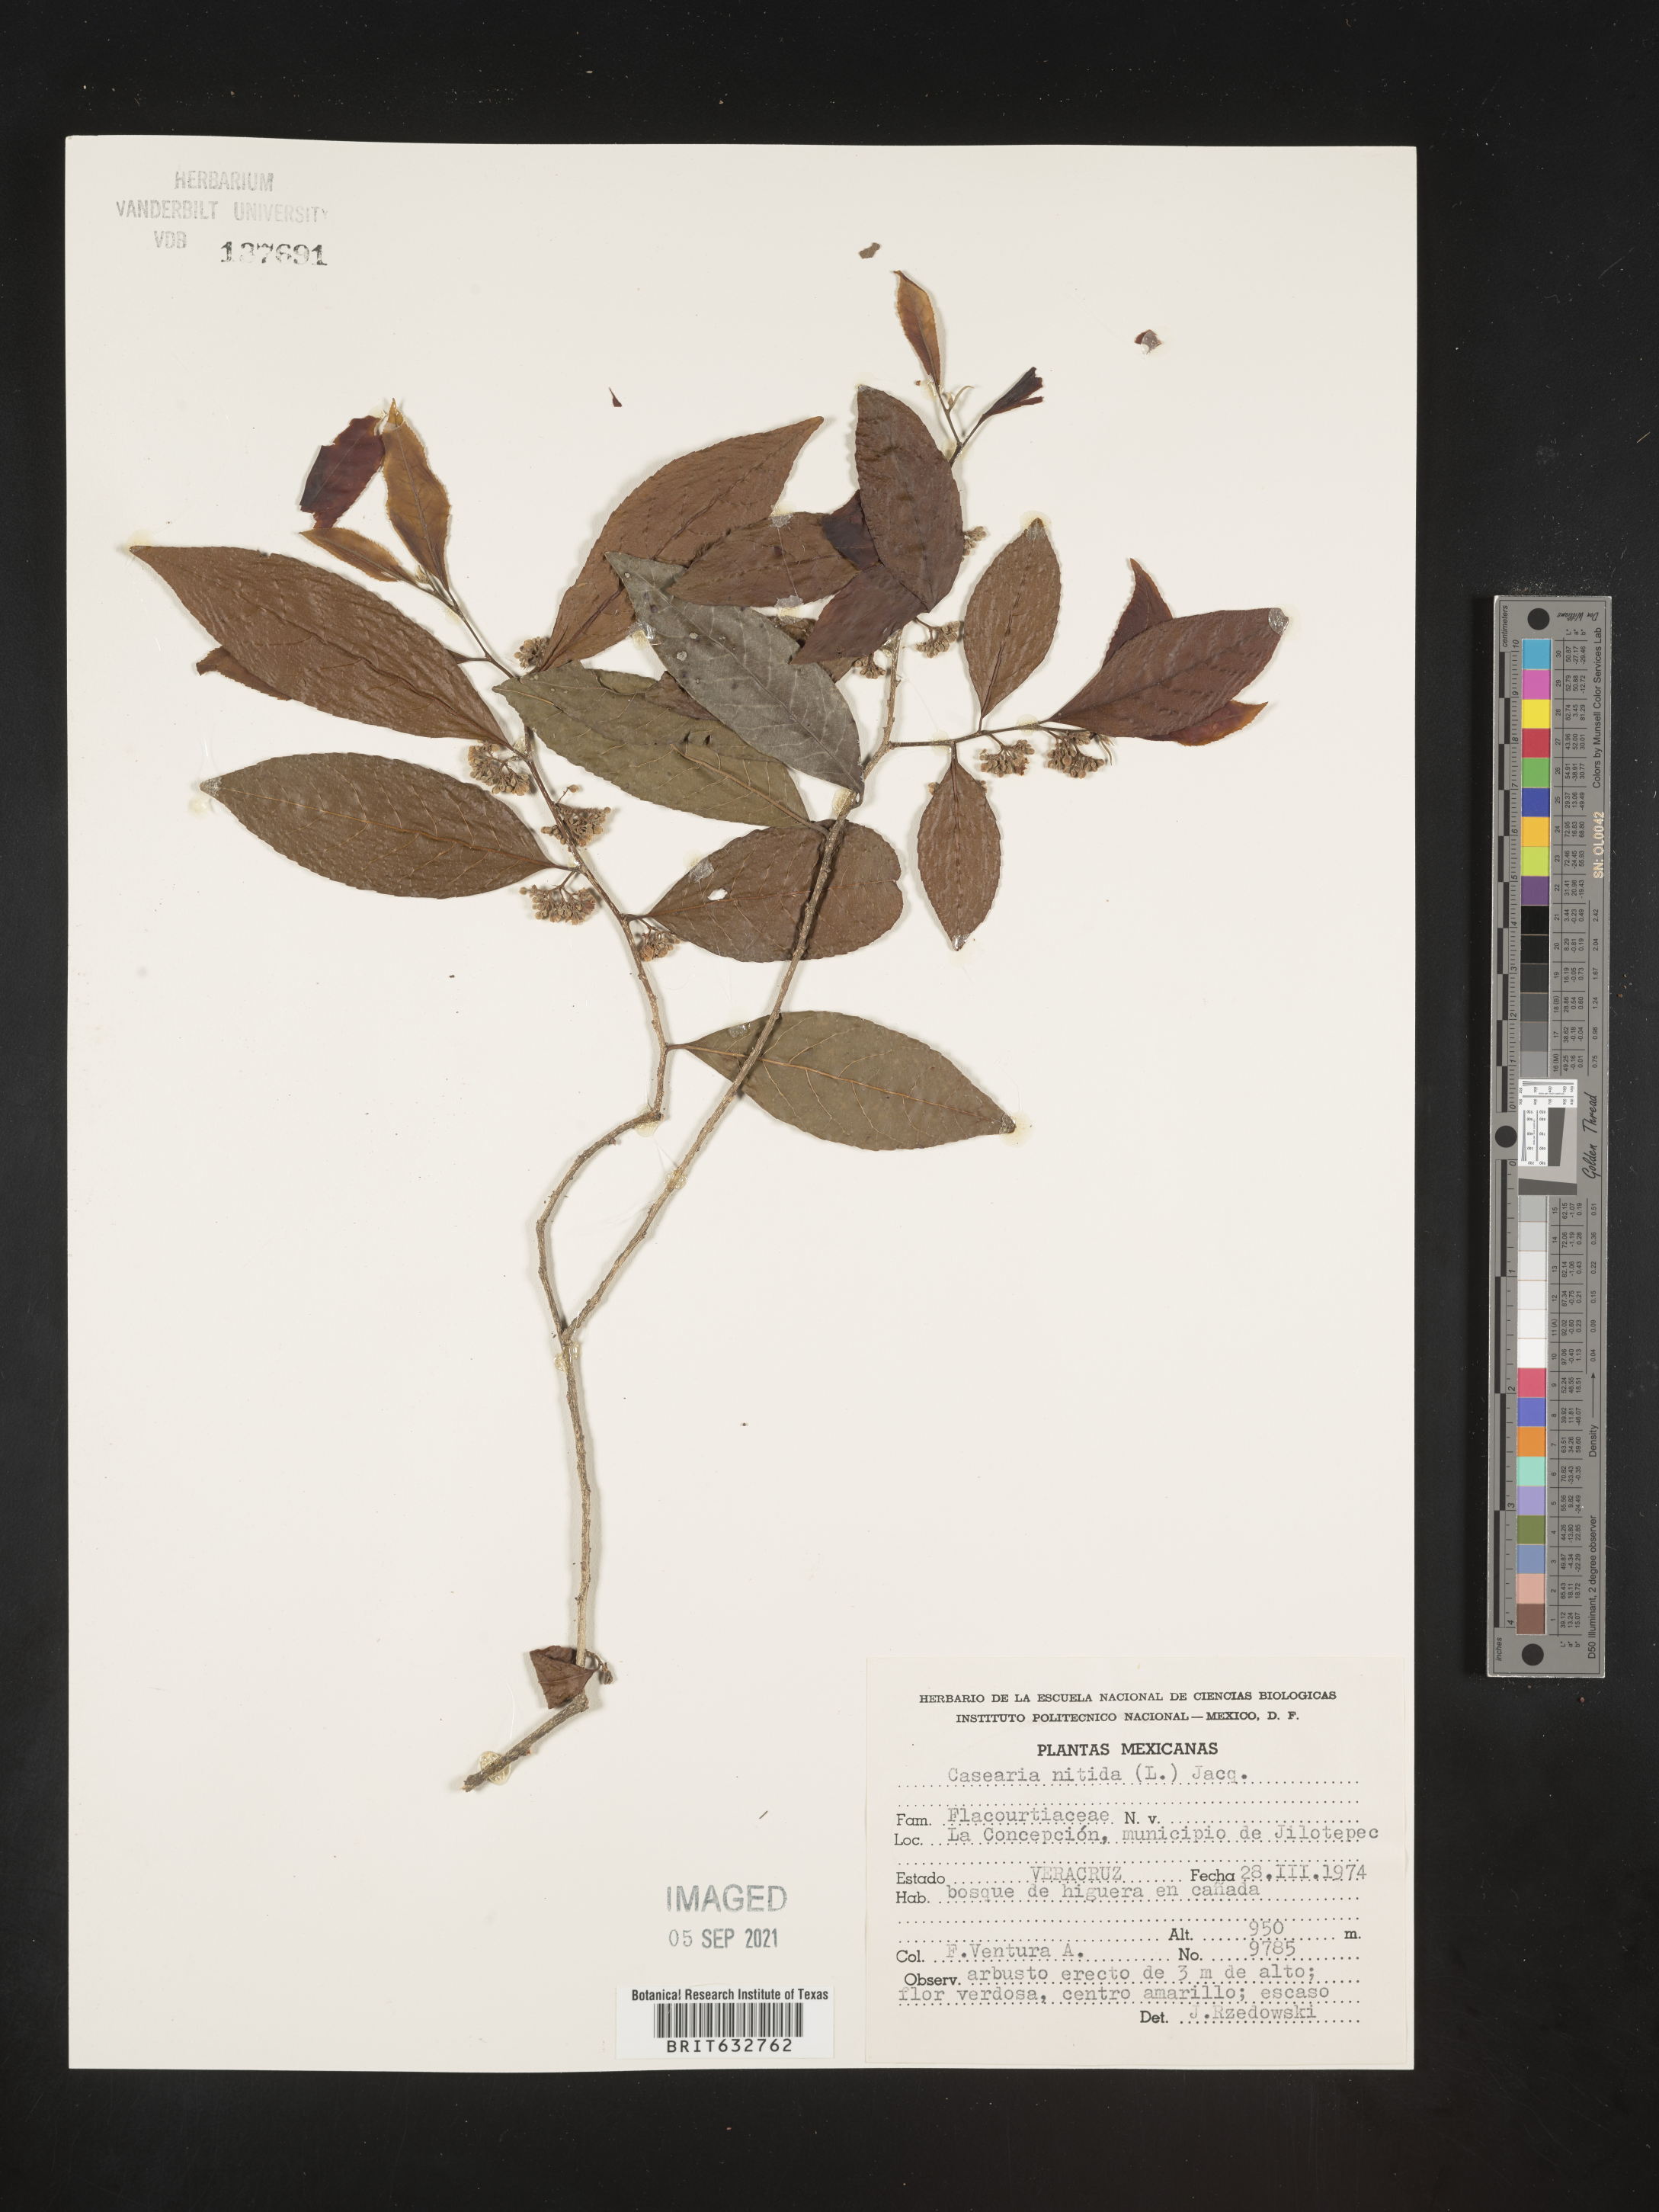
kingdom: Plantae
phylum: Tracheophyta
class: Magnoliopsida
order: Malpighiales
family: Salicaceae
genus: Casearia
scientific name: Casearia
